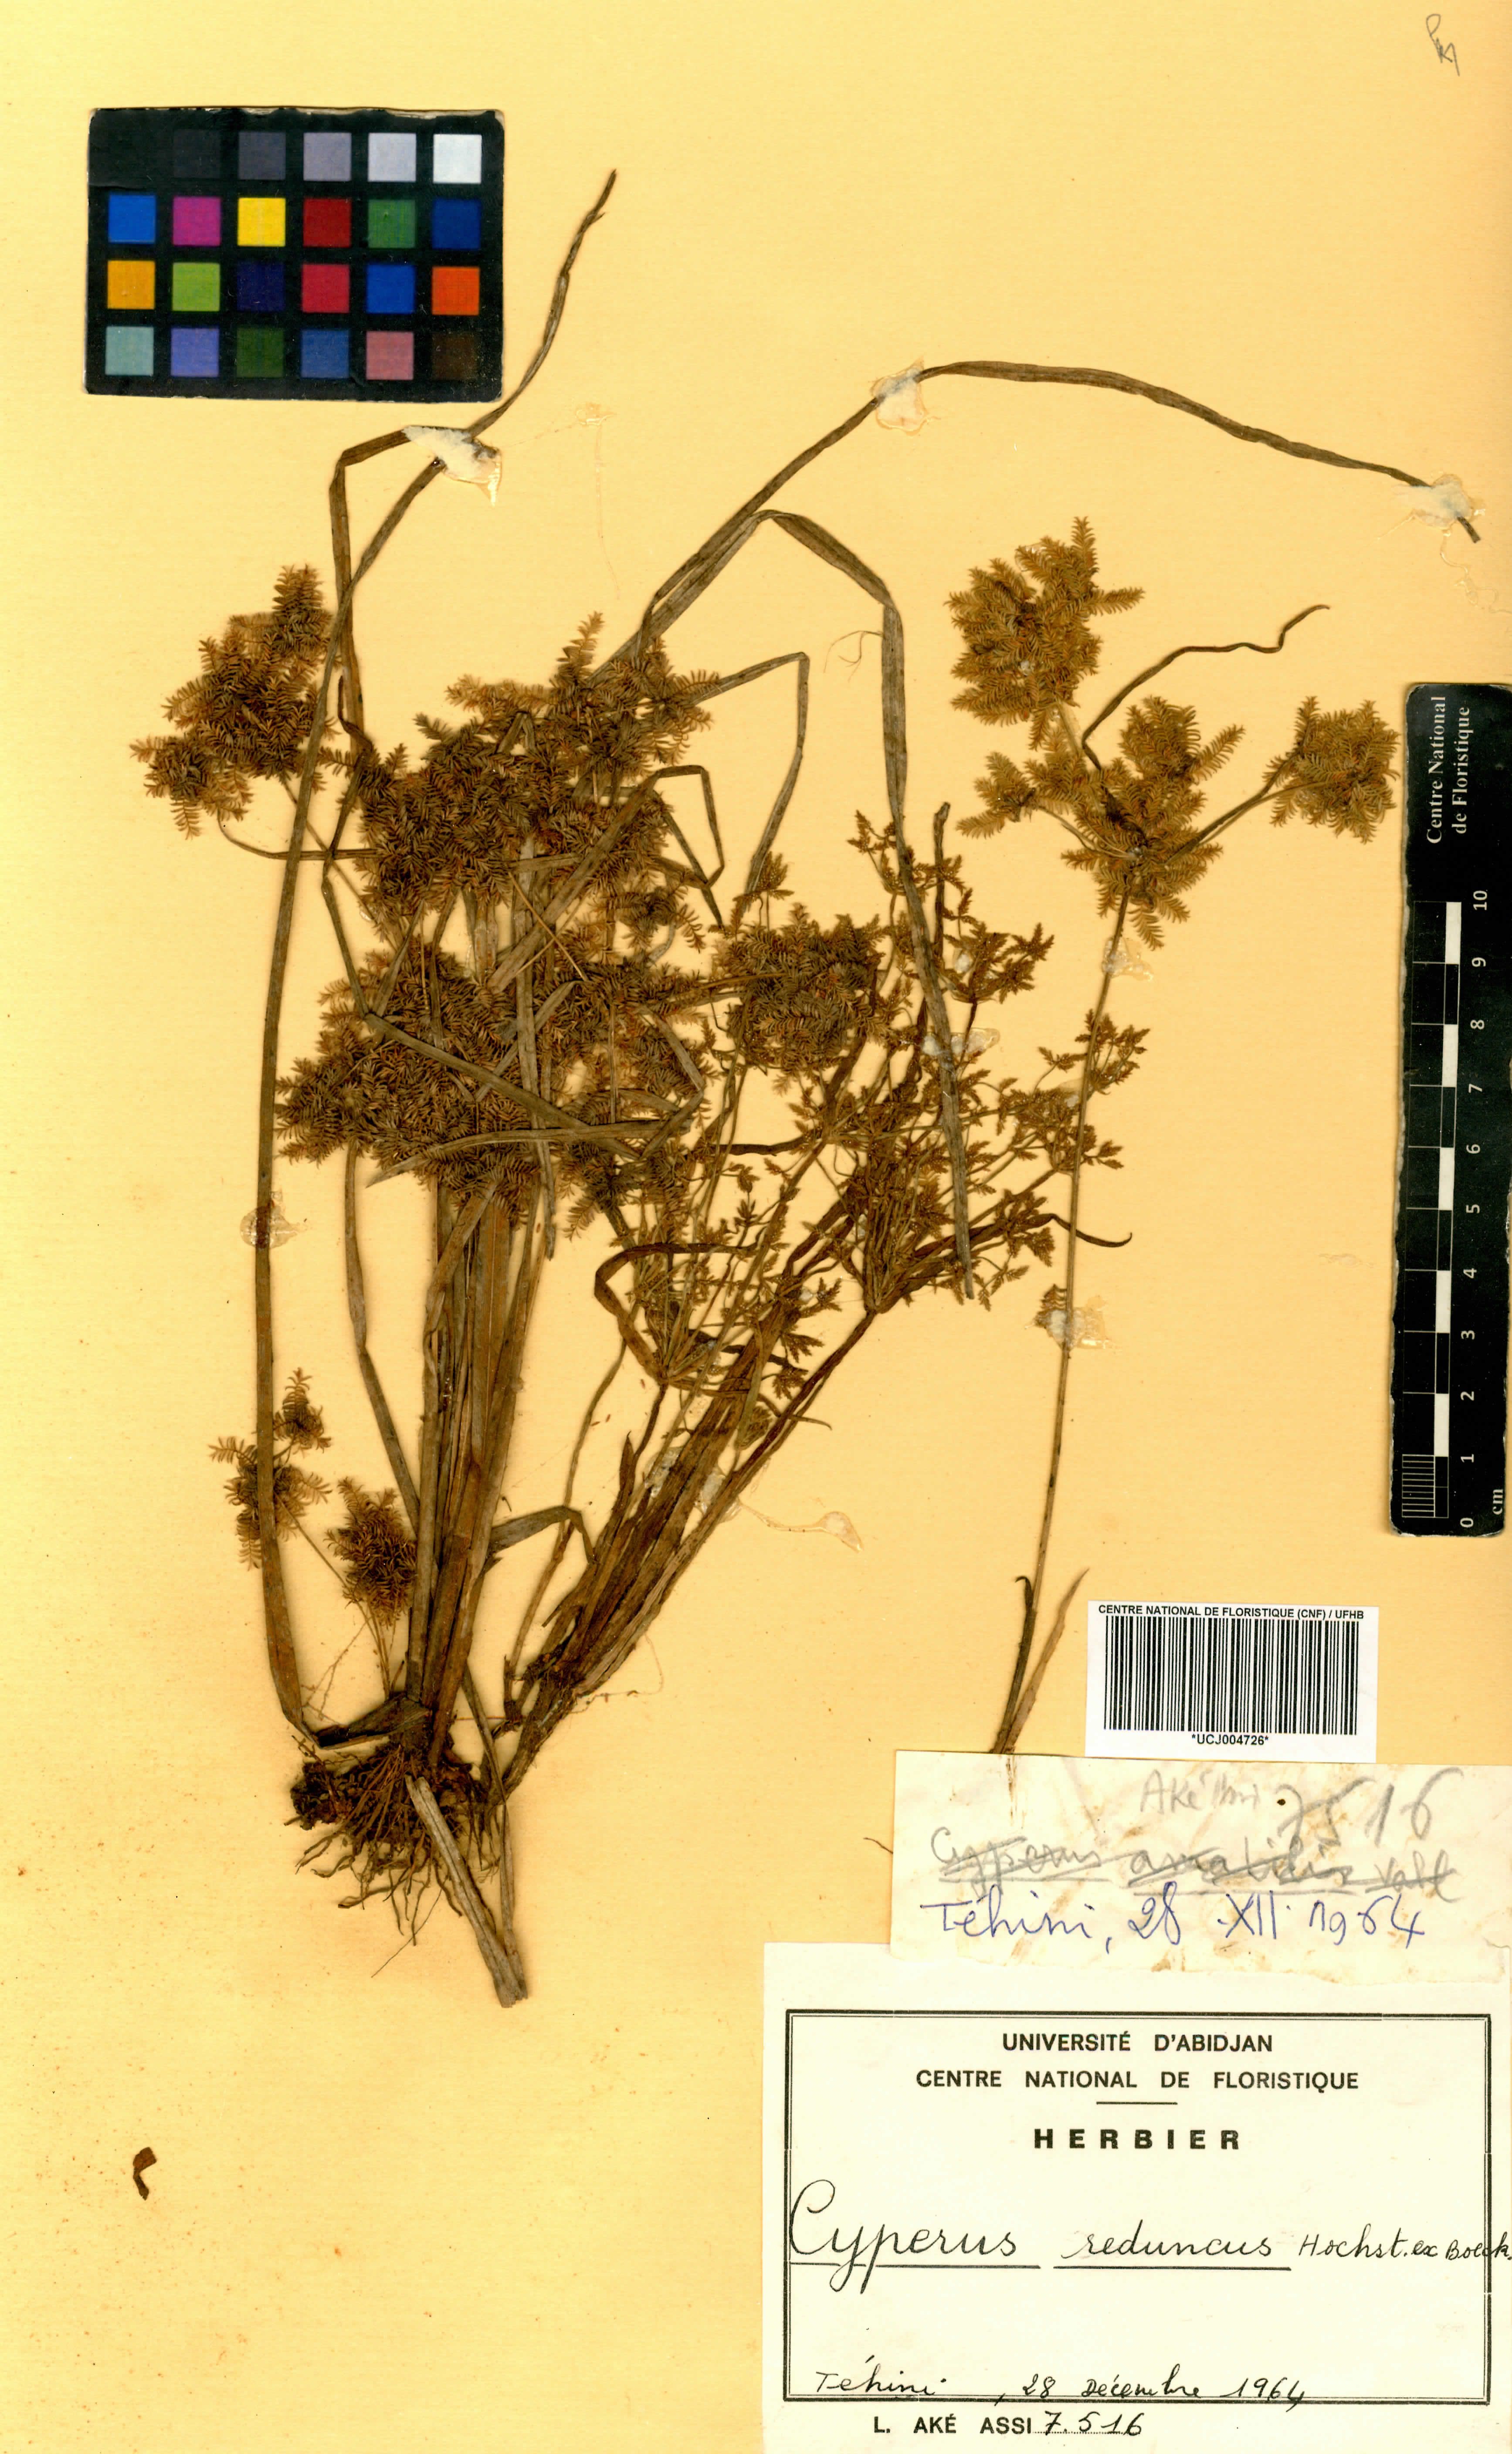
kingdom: Plantae
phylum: Tracheophyta
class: Liliopsida
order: Poales
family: Cyperaceae
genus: Cyperus
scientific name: Cyperus reduncus
